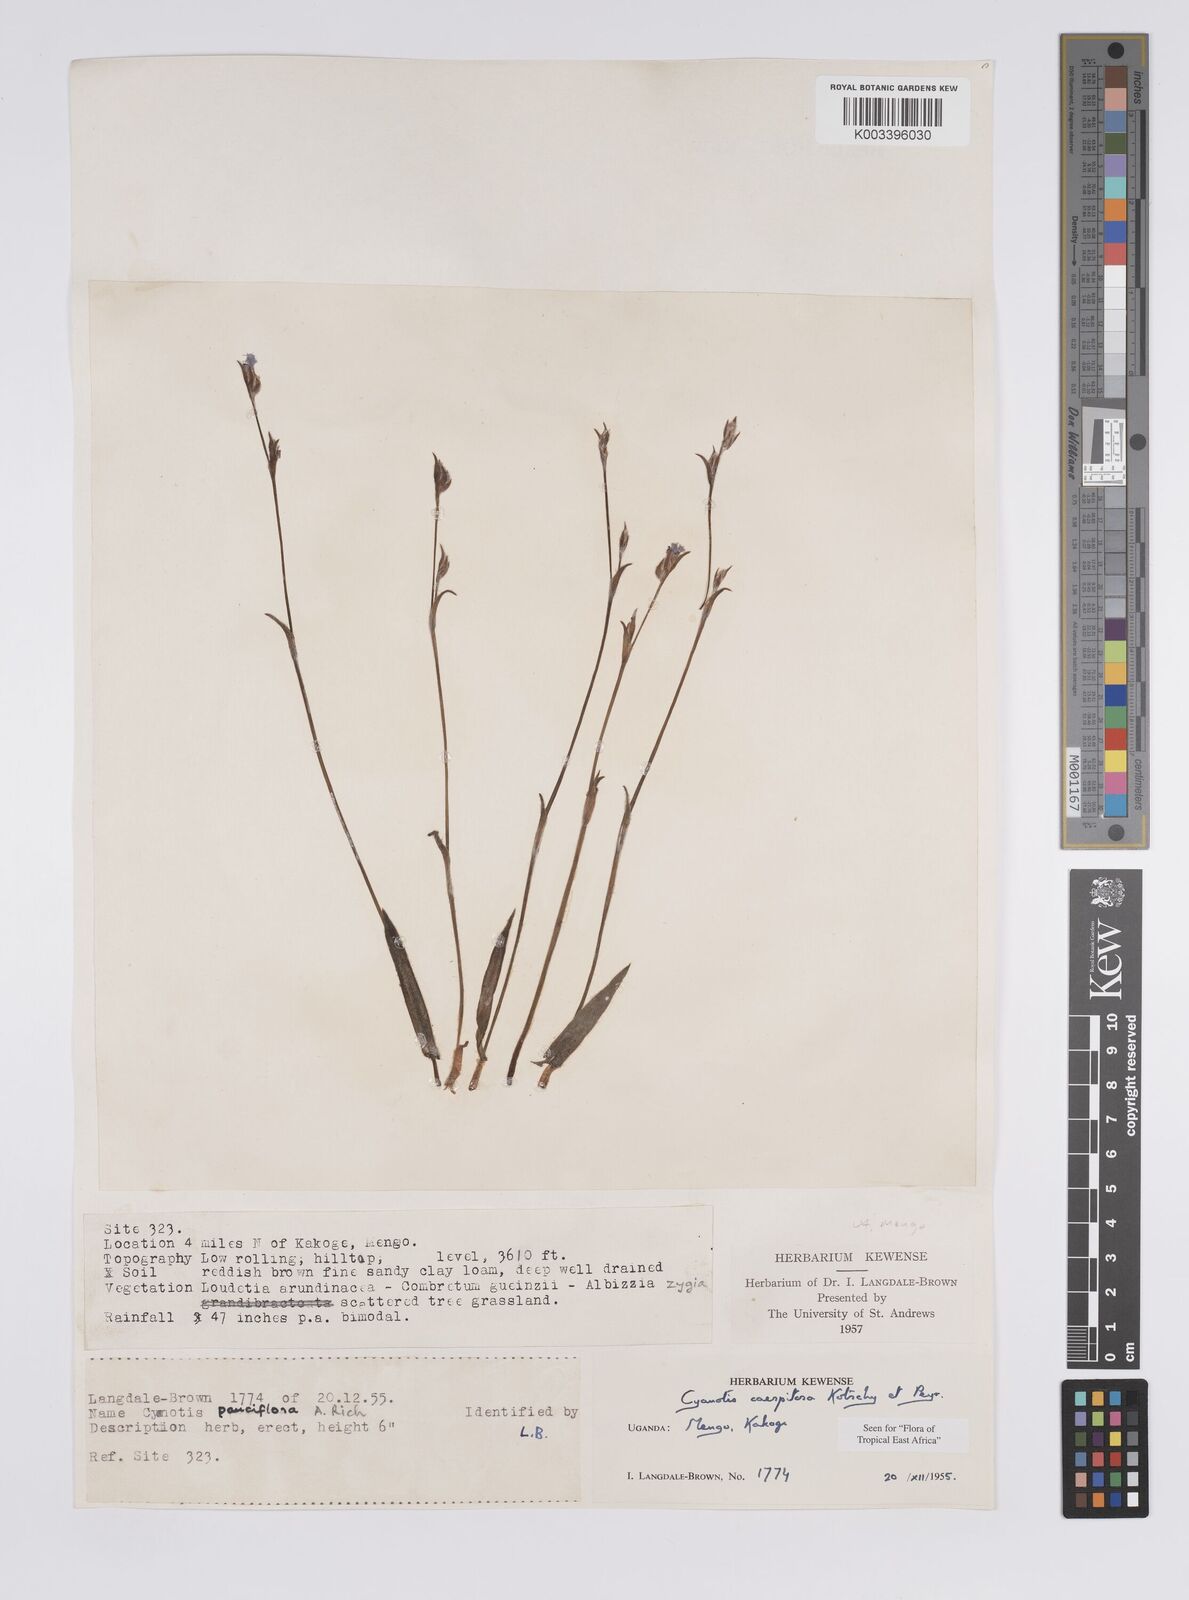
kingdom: Plantae
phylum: Tracheophyta
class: Liliopsida
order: Commelinales
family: Commelinaceae
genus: Cyanotis
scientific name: Cyanotis caespitosa
